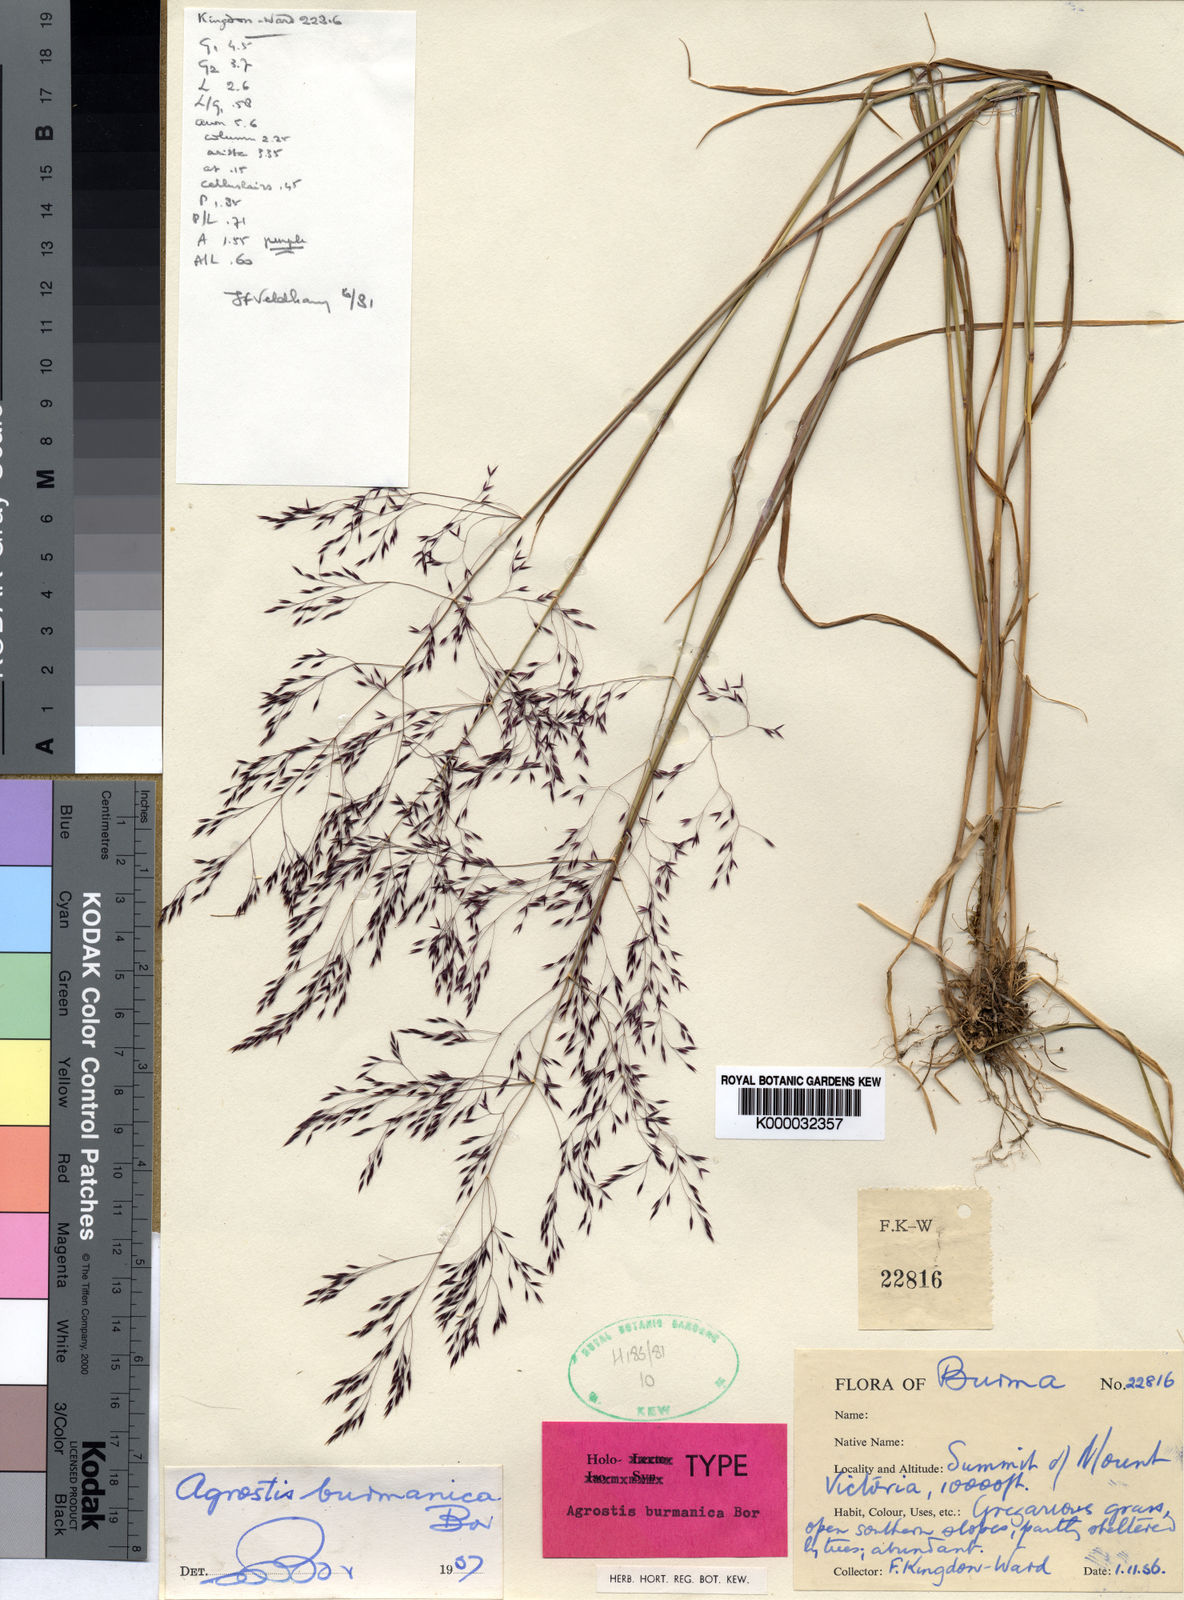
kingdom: Plantae
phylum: Tracheophyta
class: Liliopsida
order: Poales
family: Poaceae
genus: Agrostis
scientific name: Agrostis burmanica
